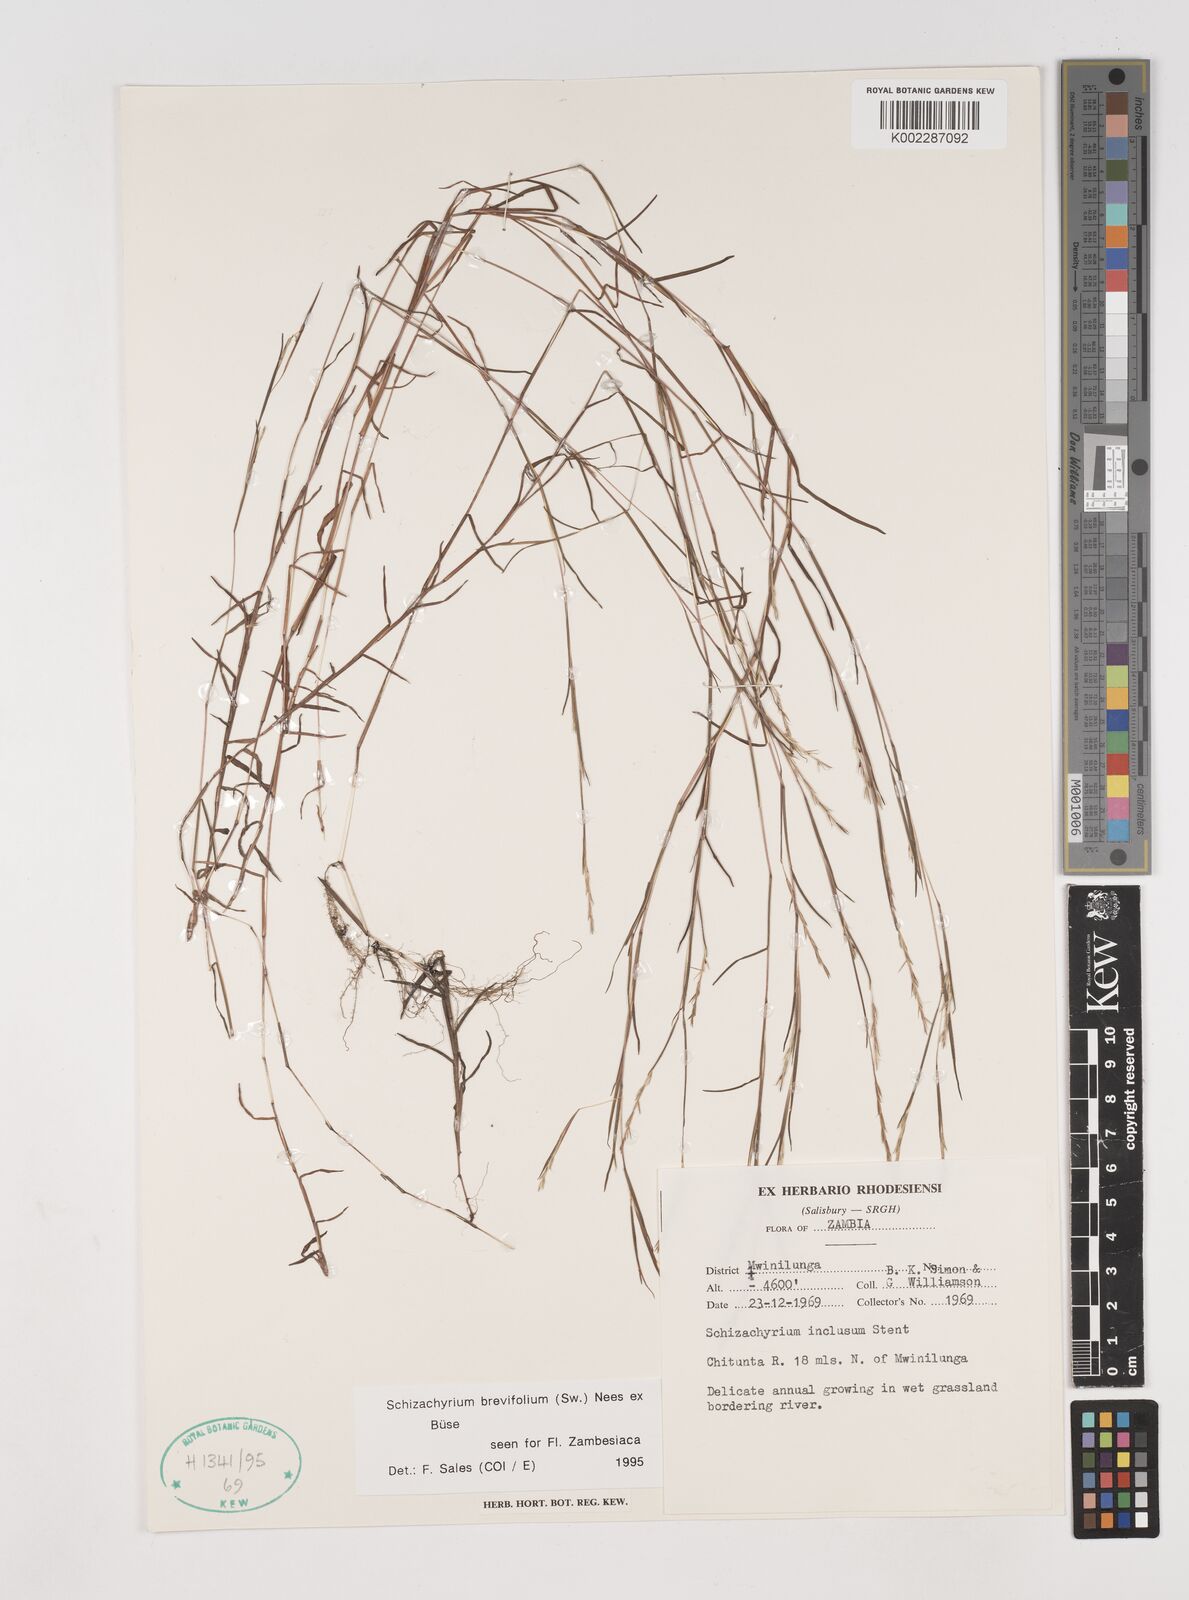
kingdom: Plantae
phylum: Tracheophyta
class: Liliopsida
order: Poales
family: Poaceae
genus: Schizachyrium
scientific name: Schizachyrium brevifolium
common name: Serillo dulce
